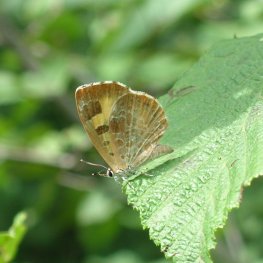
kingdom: Animalia
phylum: Arthropoda
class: Insecta
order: Lepidoptera
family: Lycaenidae
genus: Feniseca
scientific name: Feniseca tarquinius
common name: Harvester
